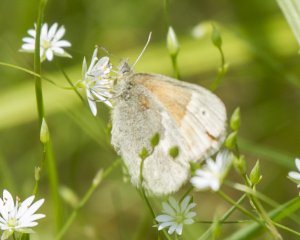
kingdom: Animalia
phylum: Arthropoda
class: Insecta
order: Lepidoptera
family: Nymphalidae
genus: Coenonympha
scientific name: Coenonympha tullia
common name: Large Heath
